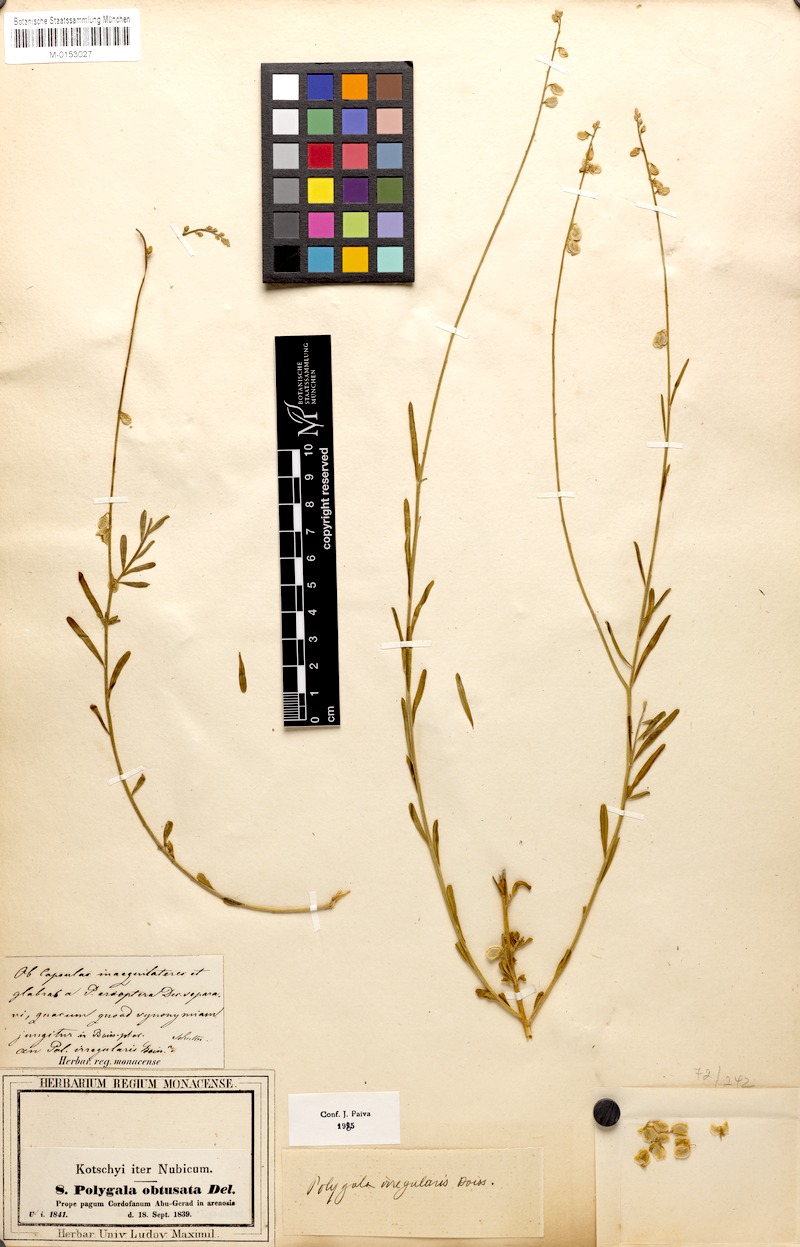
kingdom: Plantae
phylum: Tracheophyta
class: Magnoliopsida
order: Fabales
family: Polygalaceae
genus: Polygala
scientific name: Polygala irregularis
